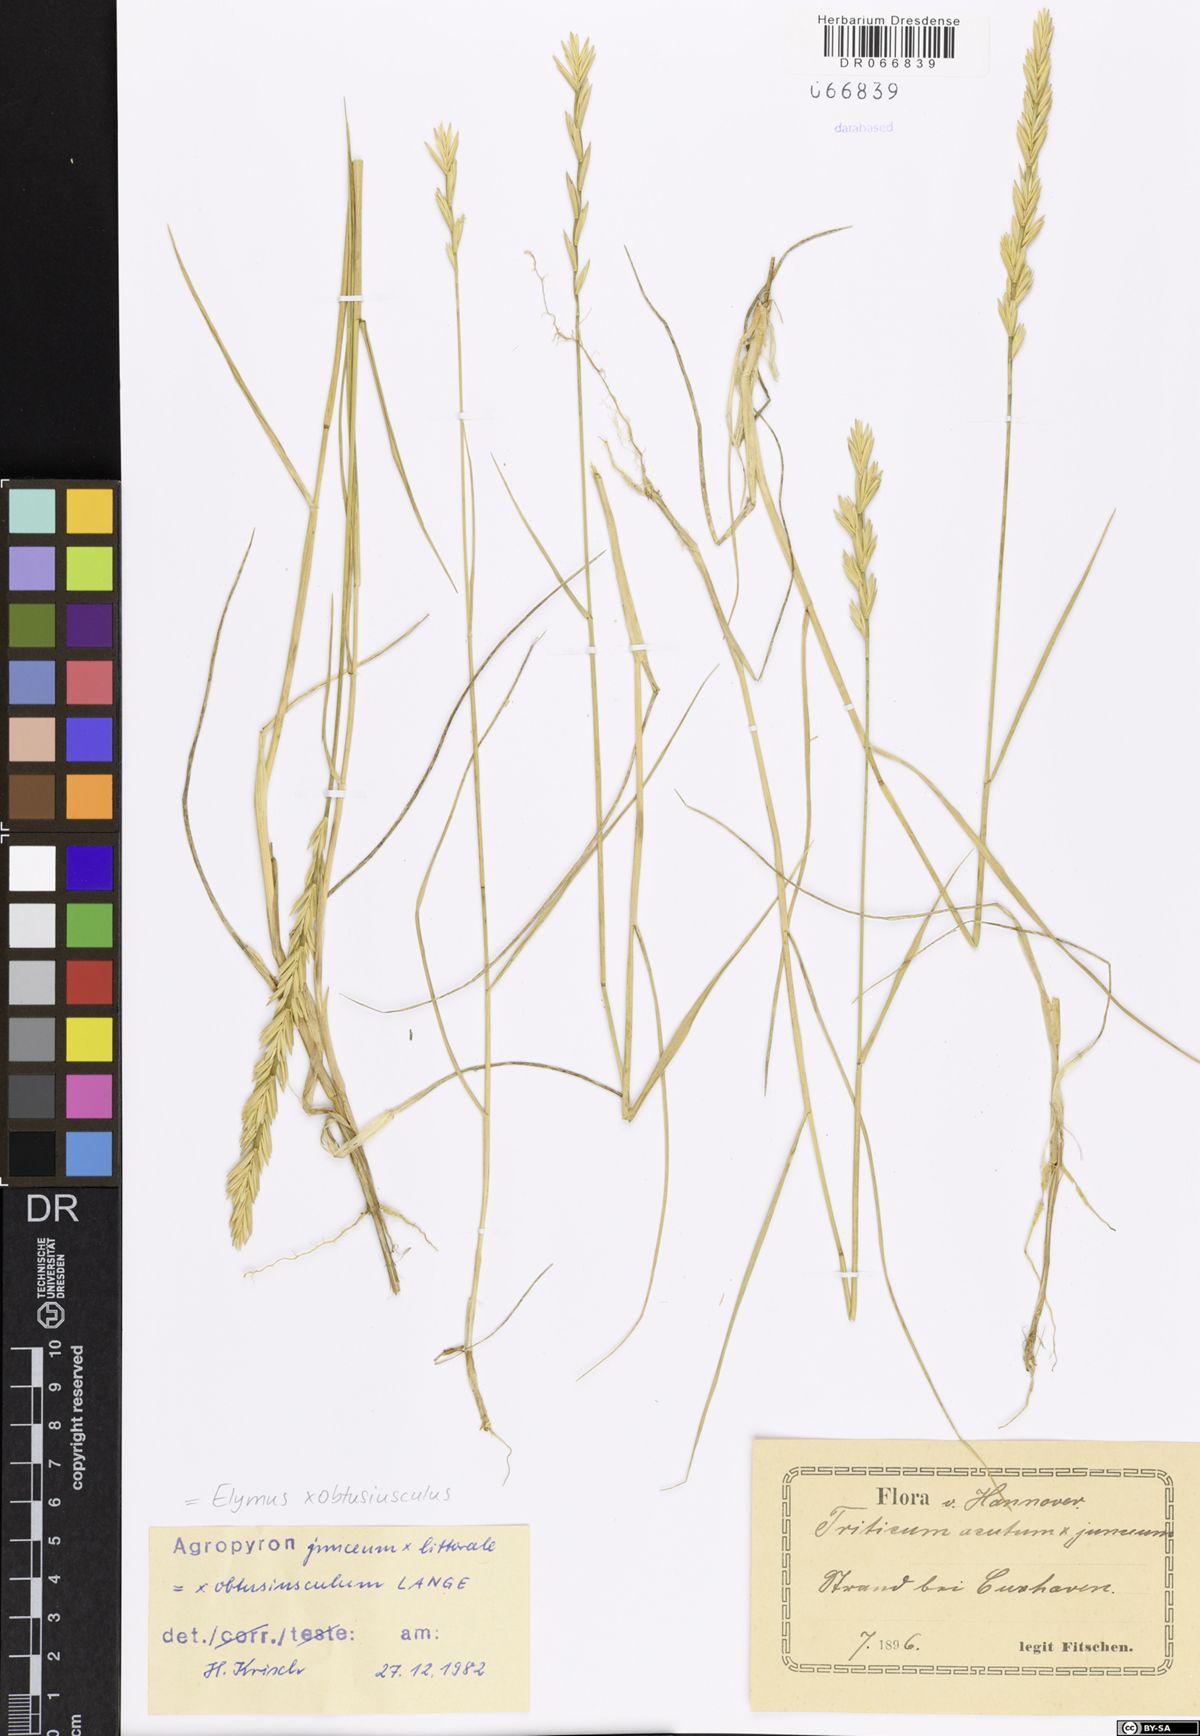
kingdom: Plantae
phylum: Tracheophyta
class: Liliopsida
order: Poales
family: Poaceae
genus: Thinoelymus
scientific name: Thinoelymus obtusiusculus
